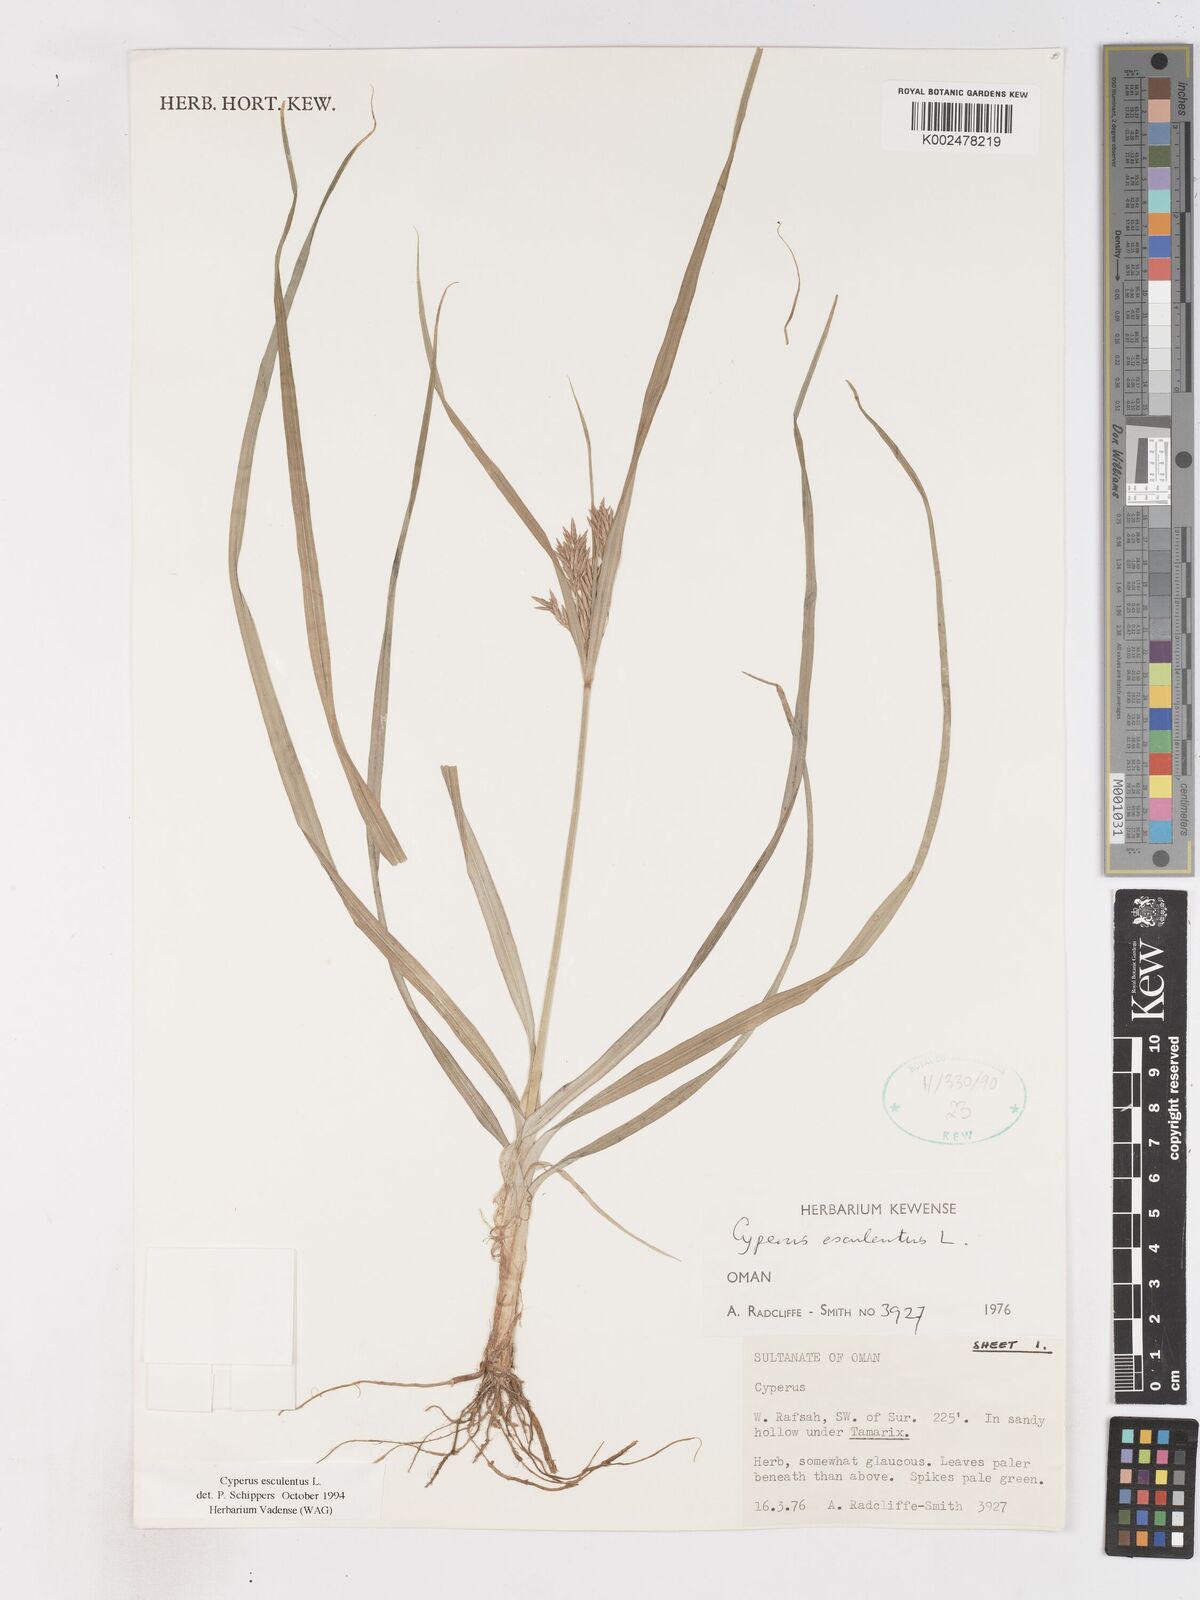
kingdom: Plantae
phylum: Tracheophyta
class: Liliopsida
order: Poales
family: Cyperaceae
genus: Cyperus
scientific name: Cyperus esculentus
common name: Yellow nutsedge
